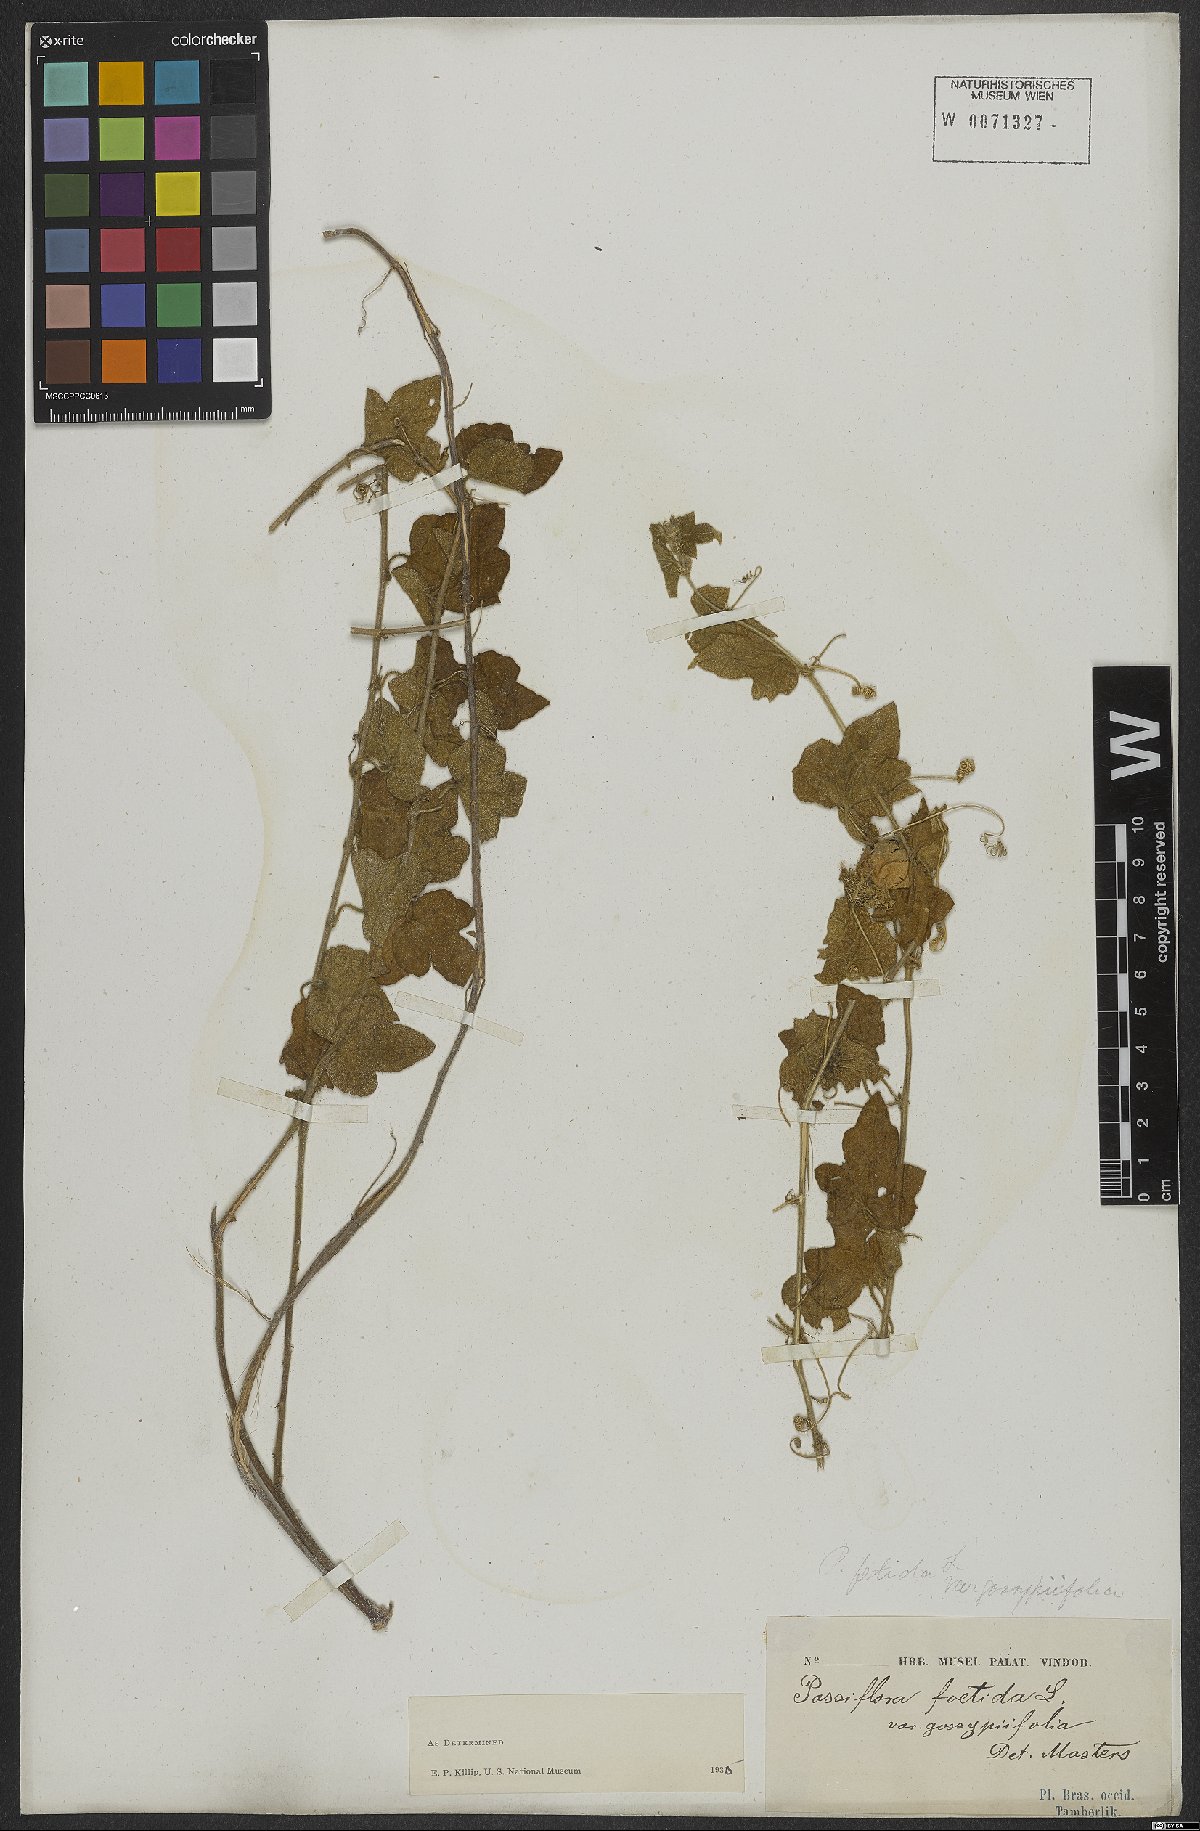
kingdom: Plantae
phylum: Tracheophyta
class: Magnoliopsida
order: Malpighiales
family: Passifloraceae
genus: Passiflora
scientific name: Passiflora foetida
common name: Fetid passionflower
